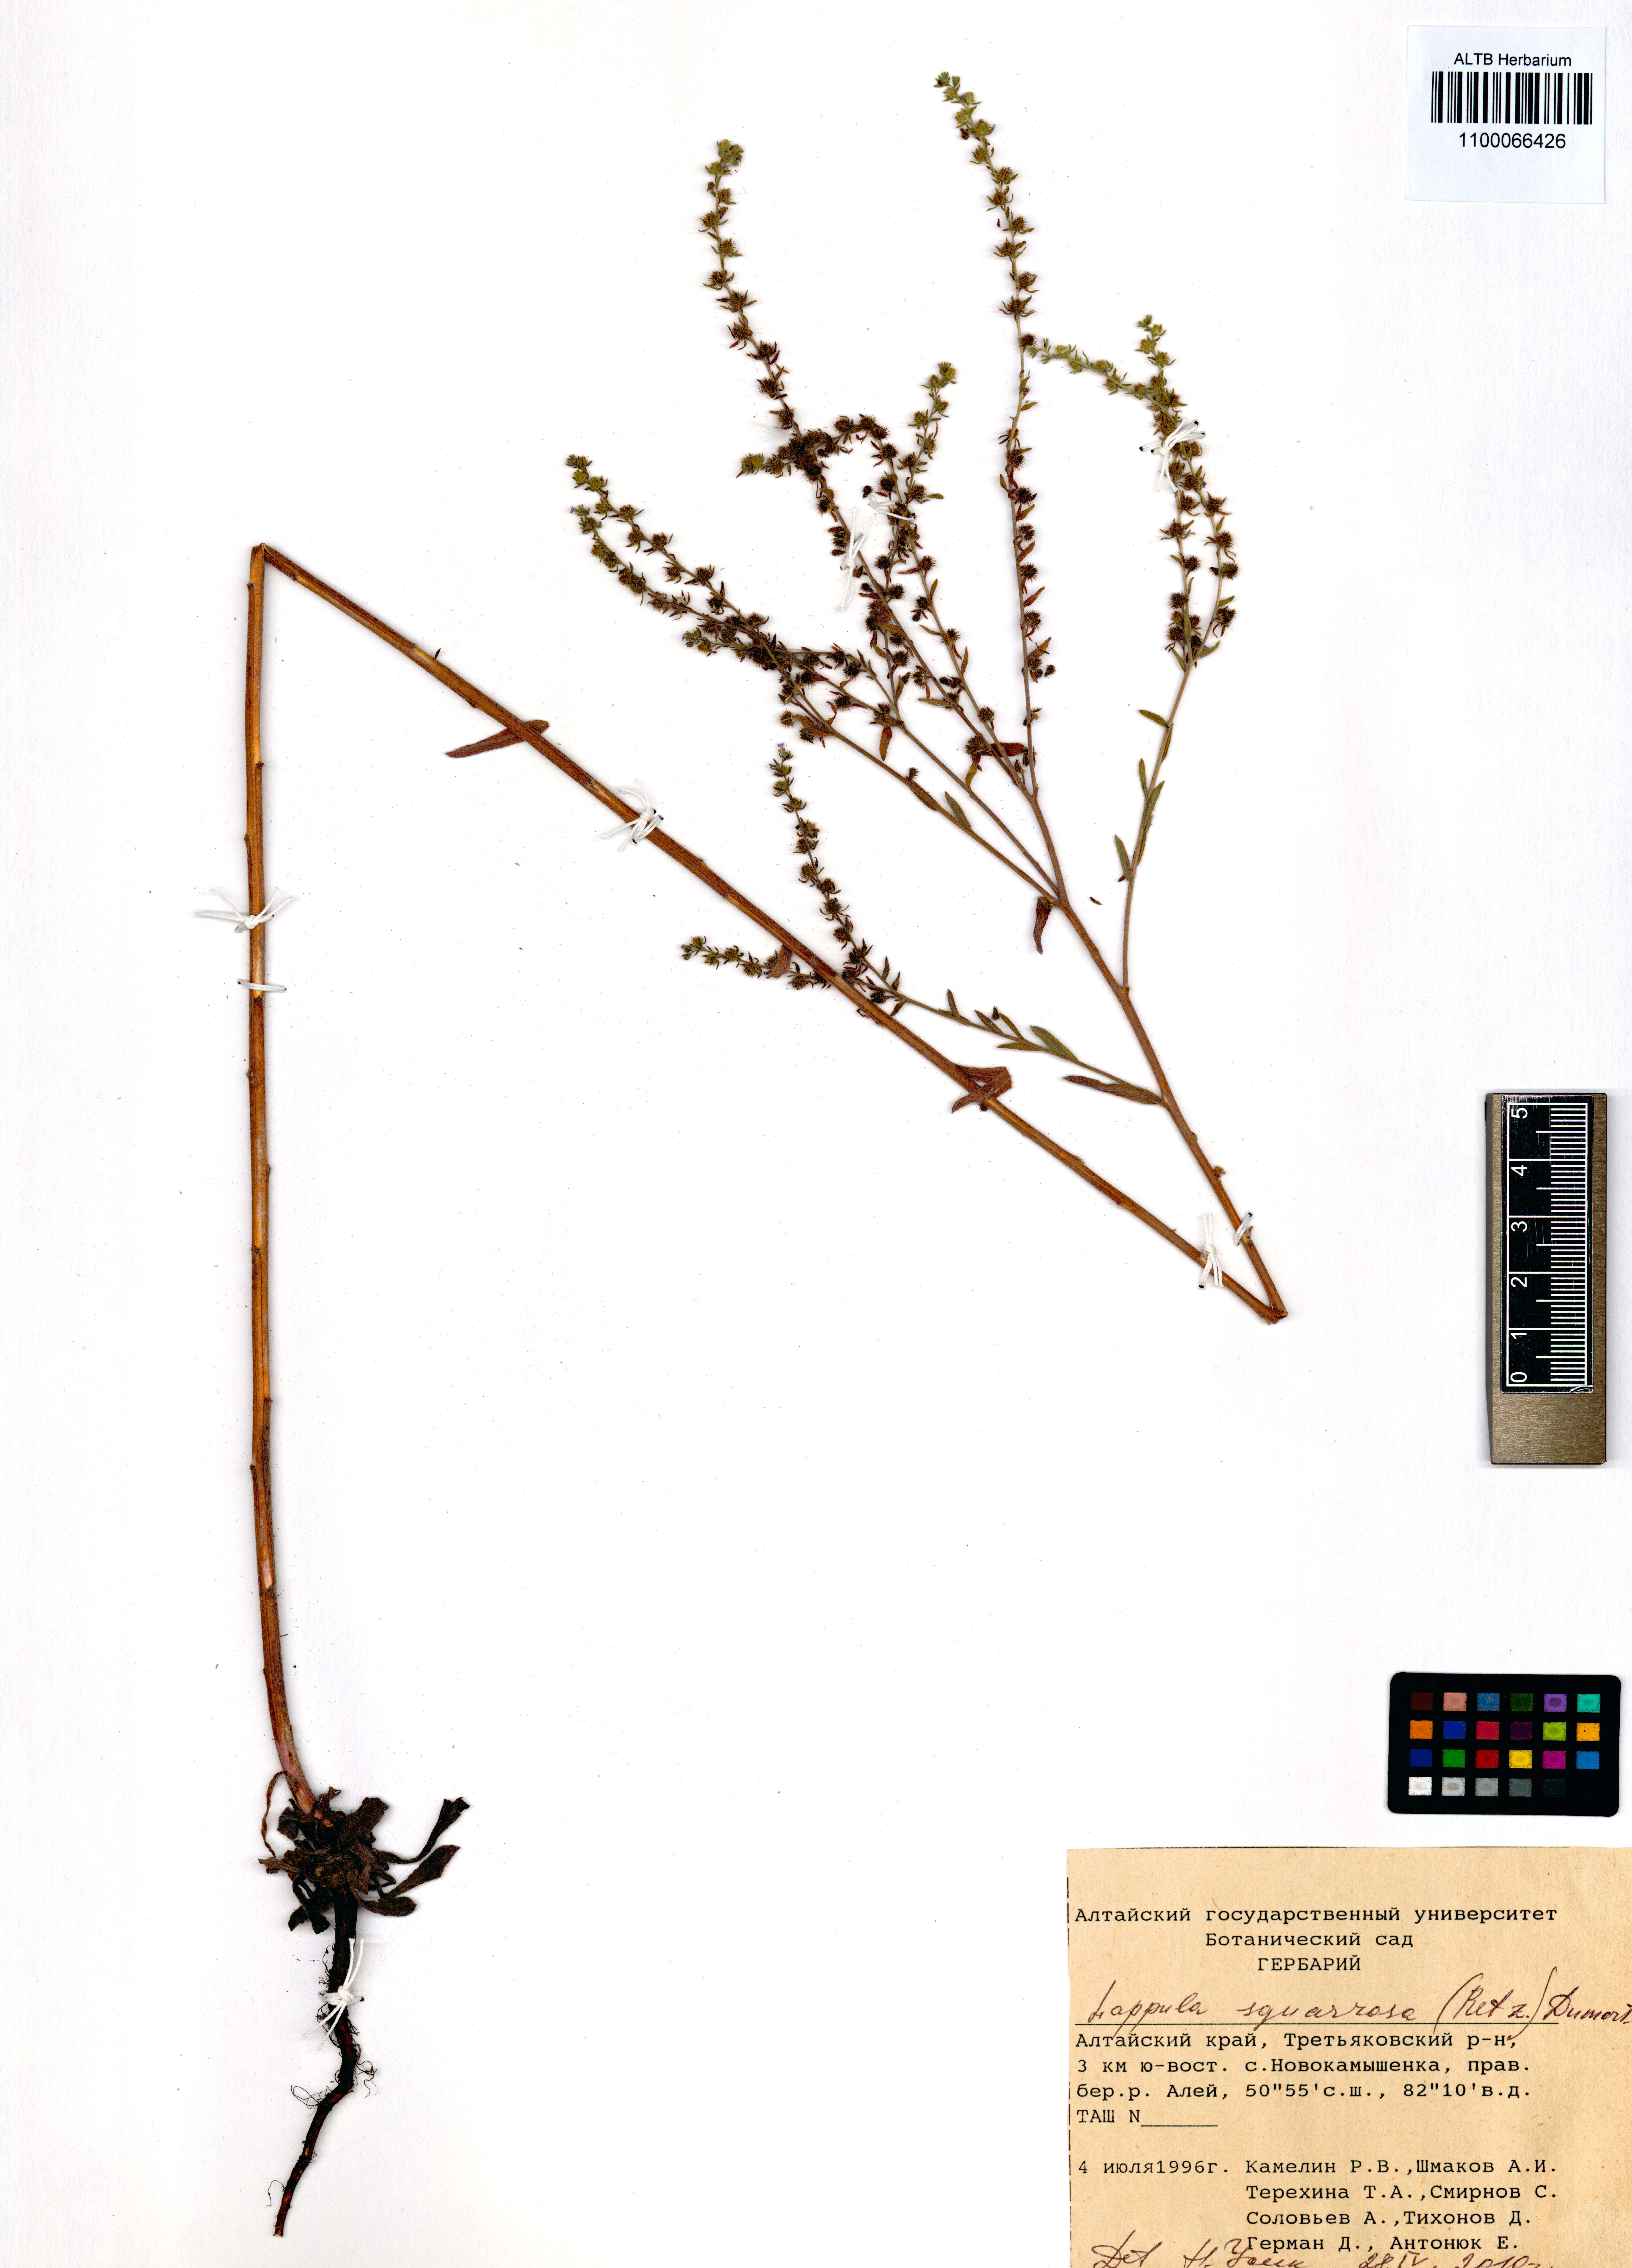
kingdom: Plantae
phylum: Tracheophyta
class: Magnoliopsida
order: Boraginales
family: Boraginaceae
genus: Lappula
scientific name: Lappula squarrosa
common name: European stickseed
